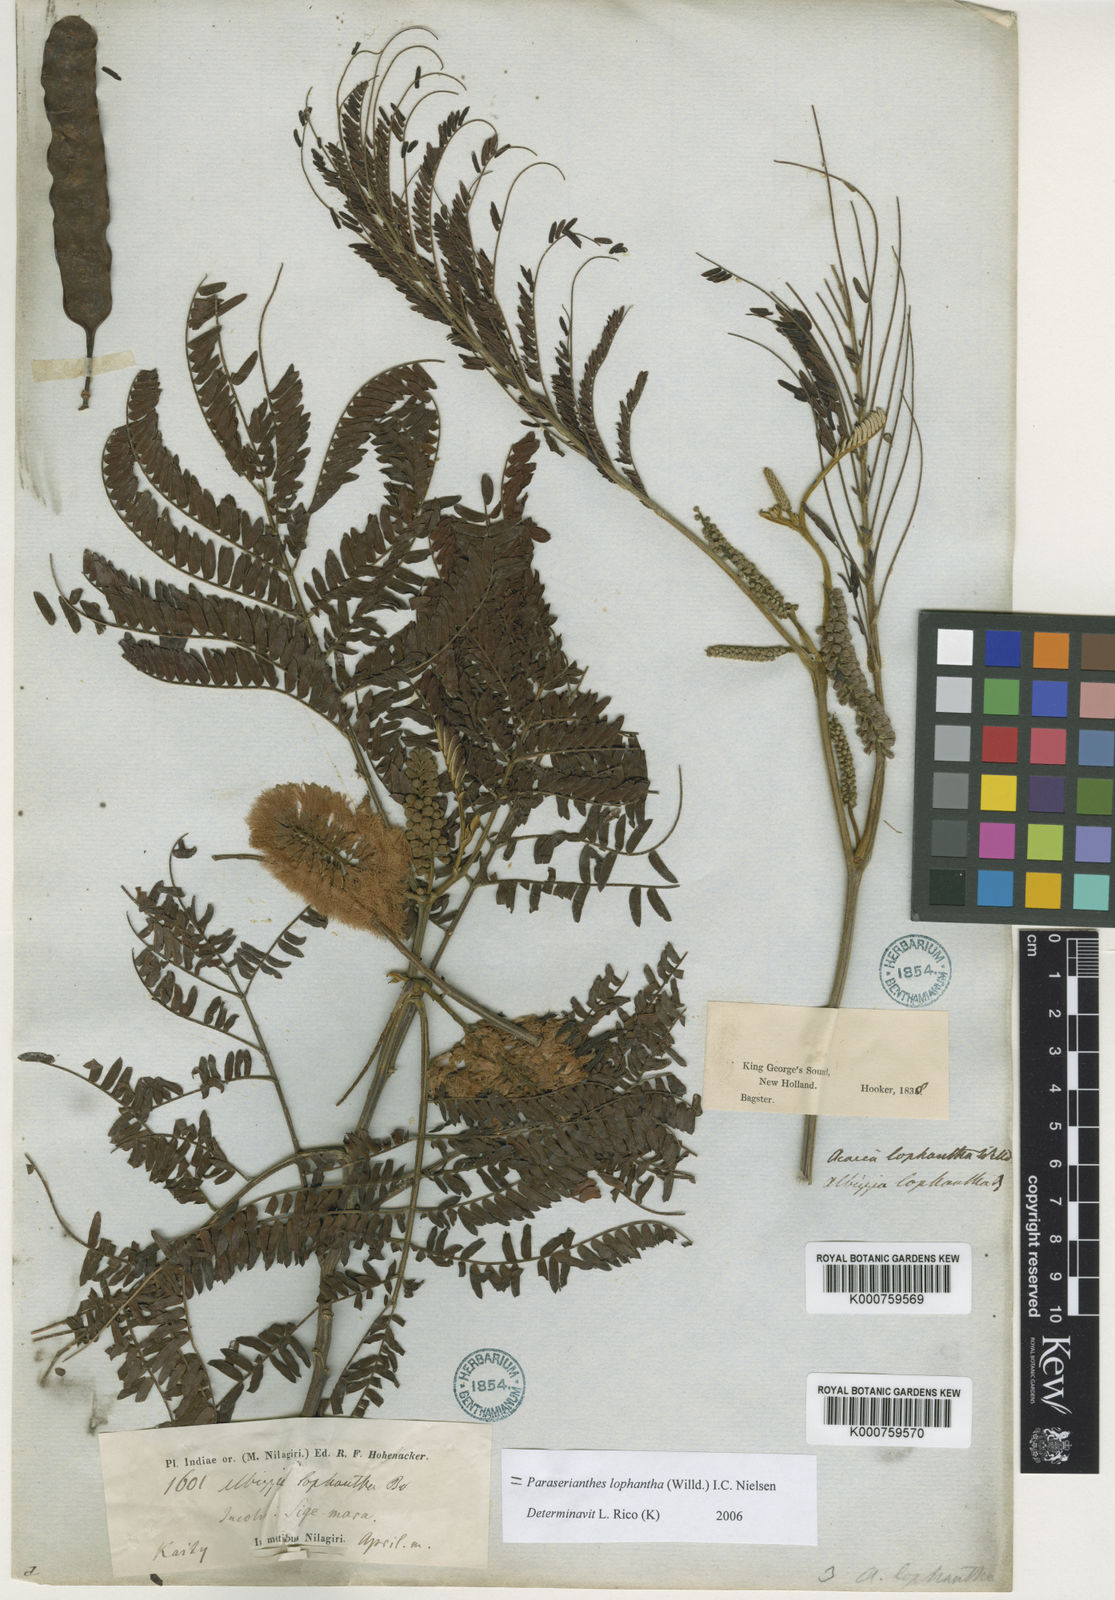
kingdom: Plantae
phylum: Tracheophyta
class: Magnoliopsida
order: Fabales
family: Fabaceae
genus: Paraserianthes
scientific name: Paraserianthes lophantha
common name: Plume albizia
